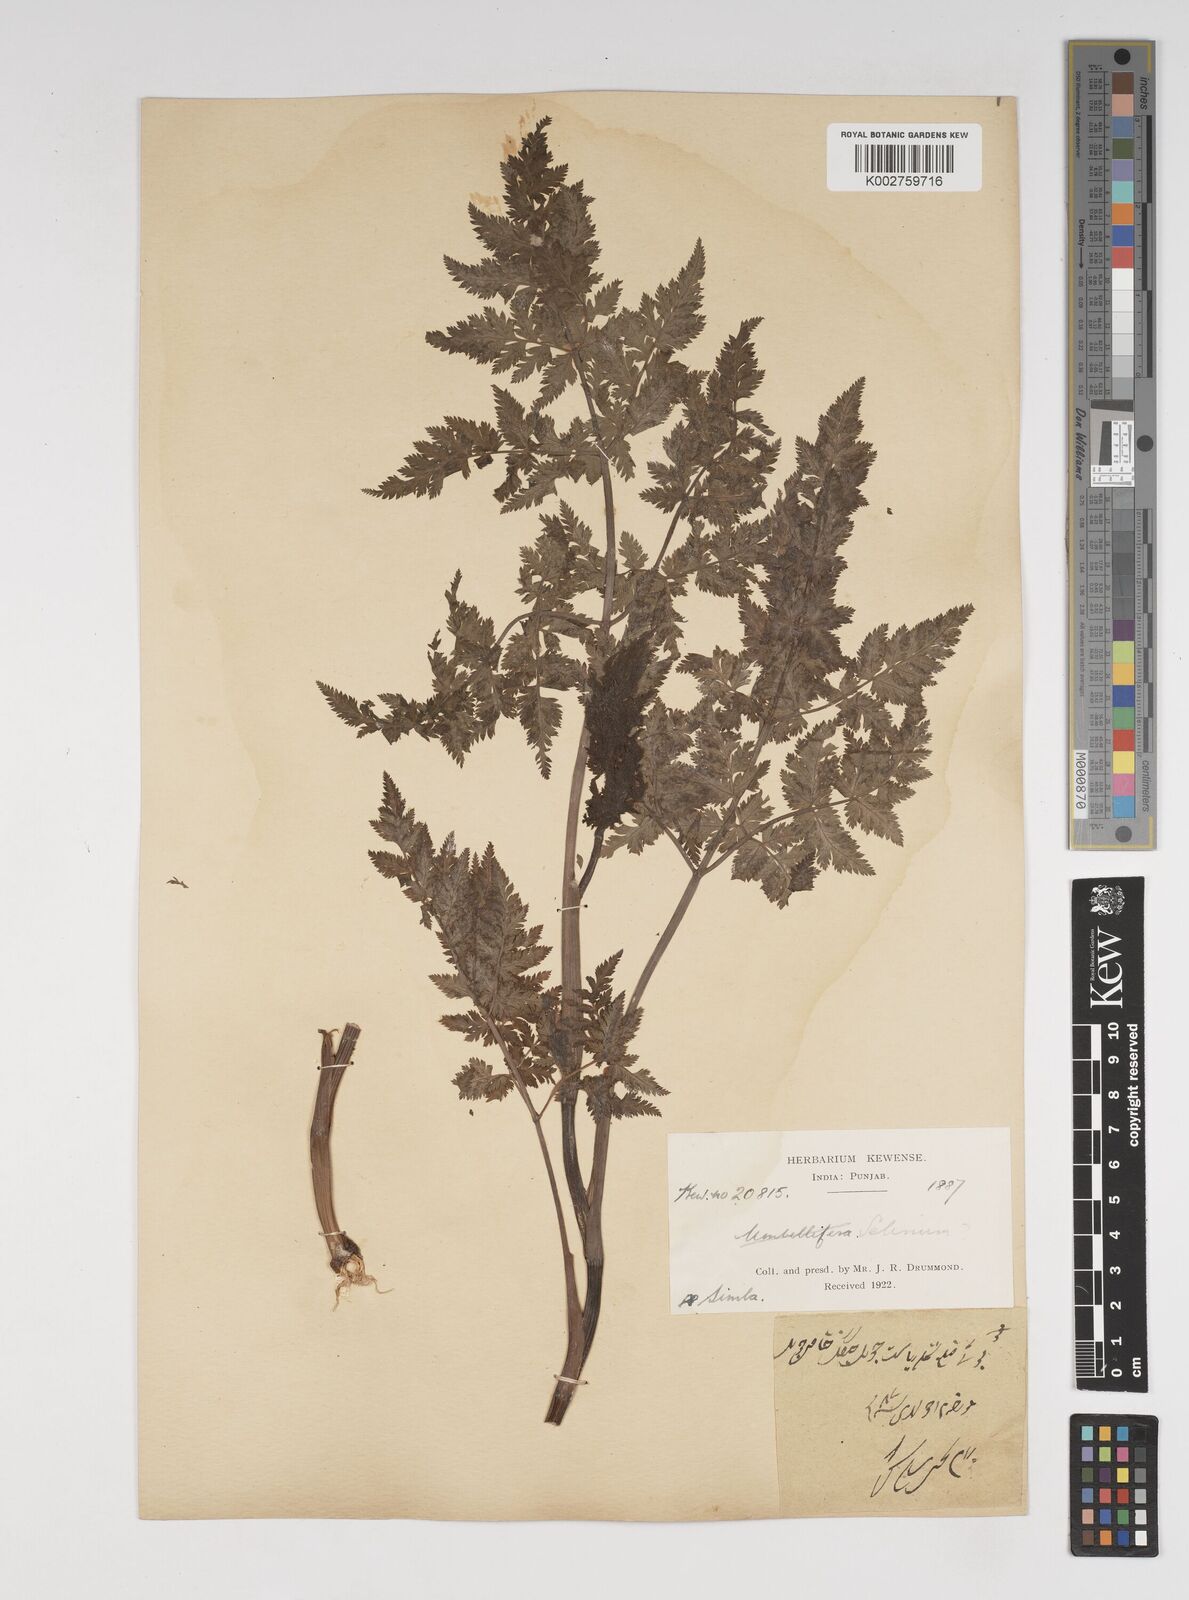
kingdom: Plantae
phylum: Tracheophyta
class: Magnoliopsida
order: Apiales
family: Apiaceae
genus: Selinum
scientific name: Selinum
